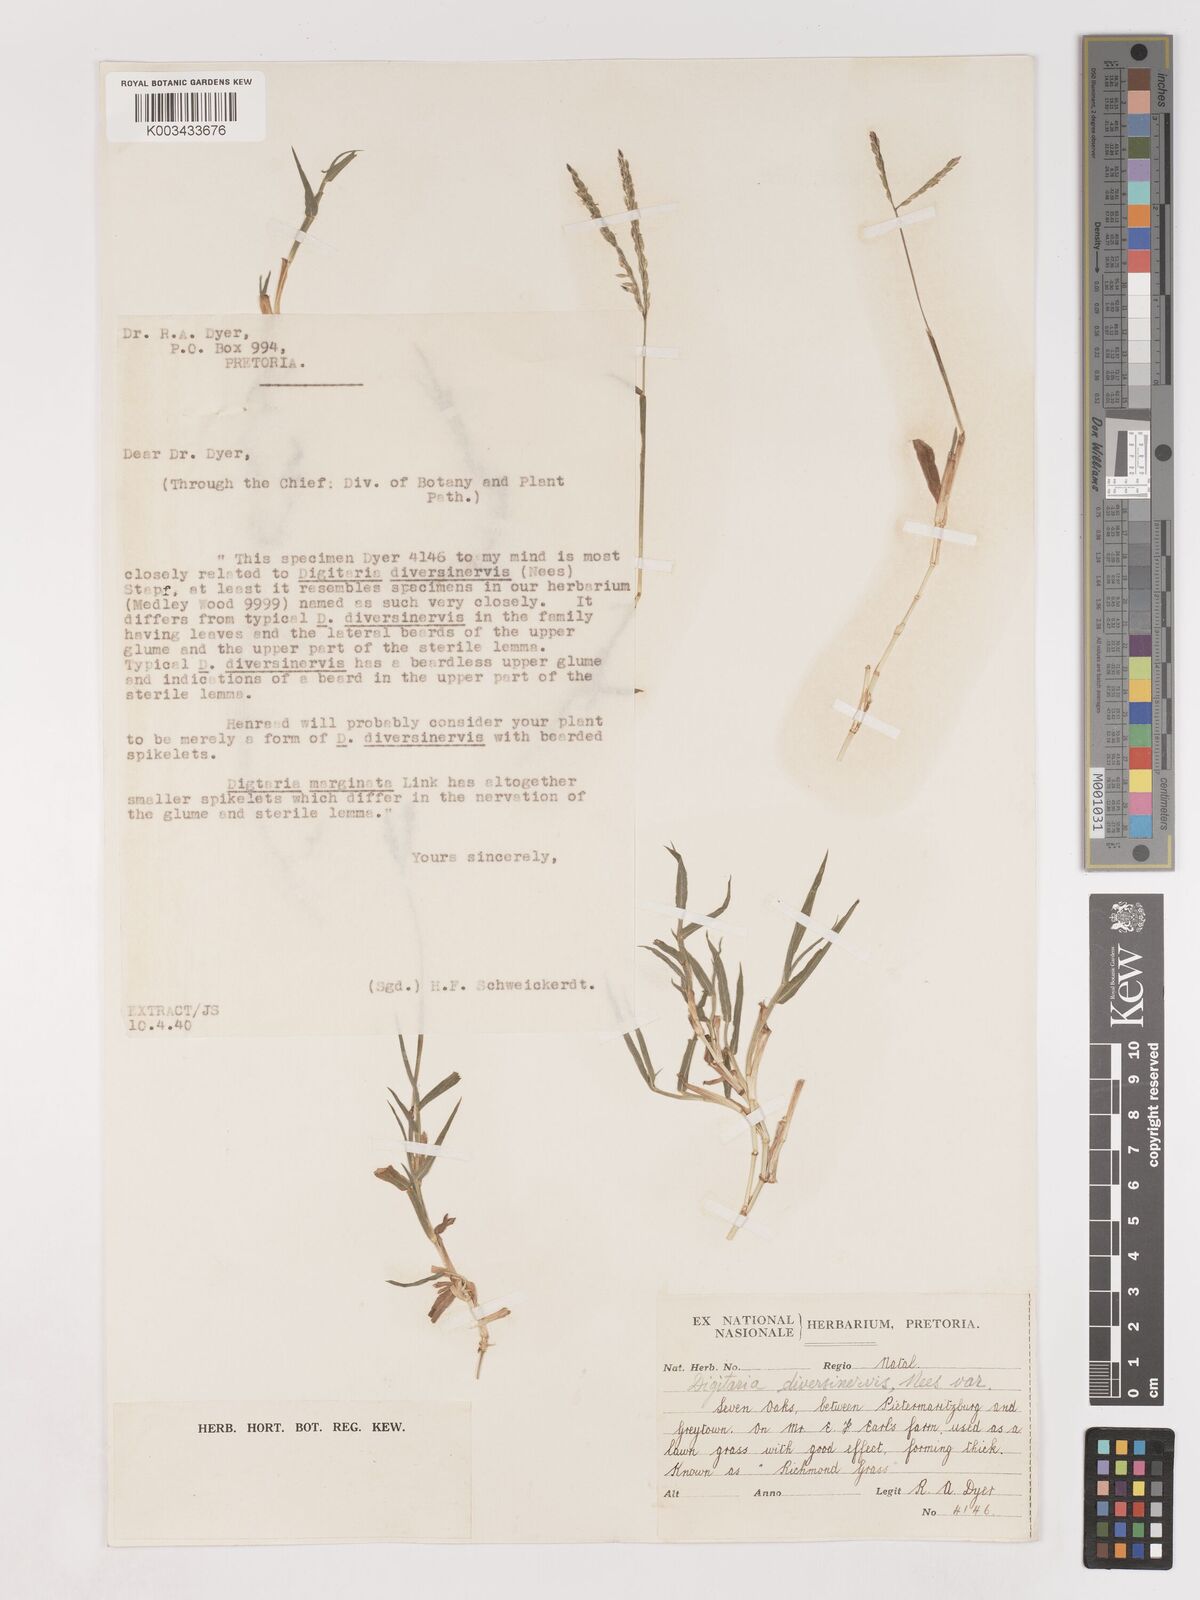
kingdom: Plantae
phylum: Tracheophyta
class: Liliopsida
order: Poales
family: Poaceae
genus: Digitaria
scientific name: Digitaria diversinervis
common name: Richmond finger grass
